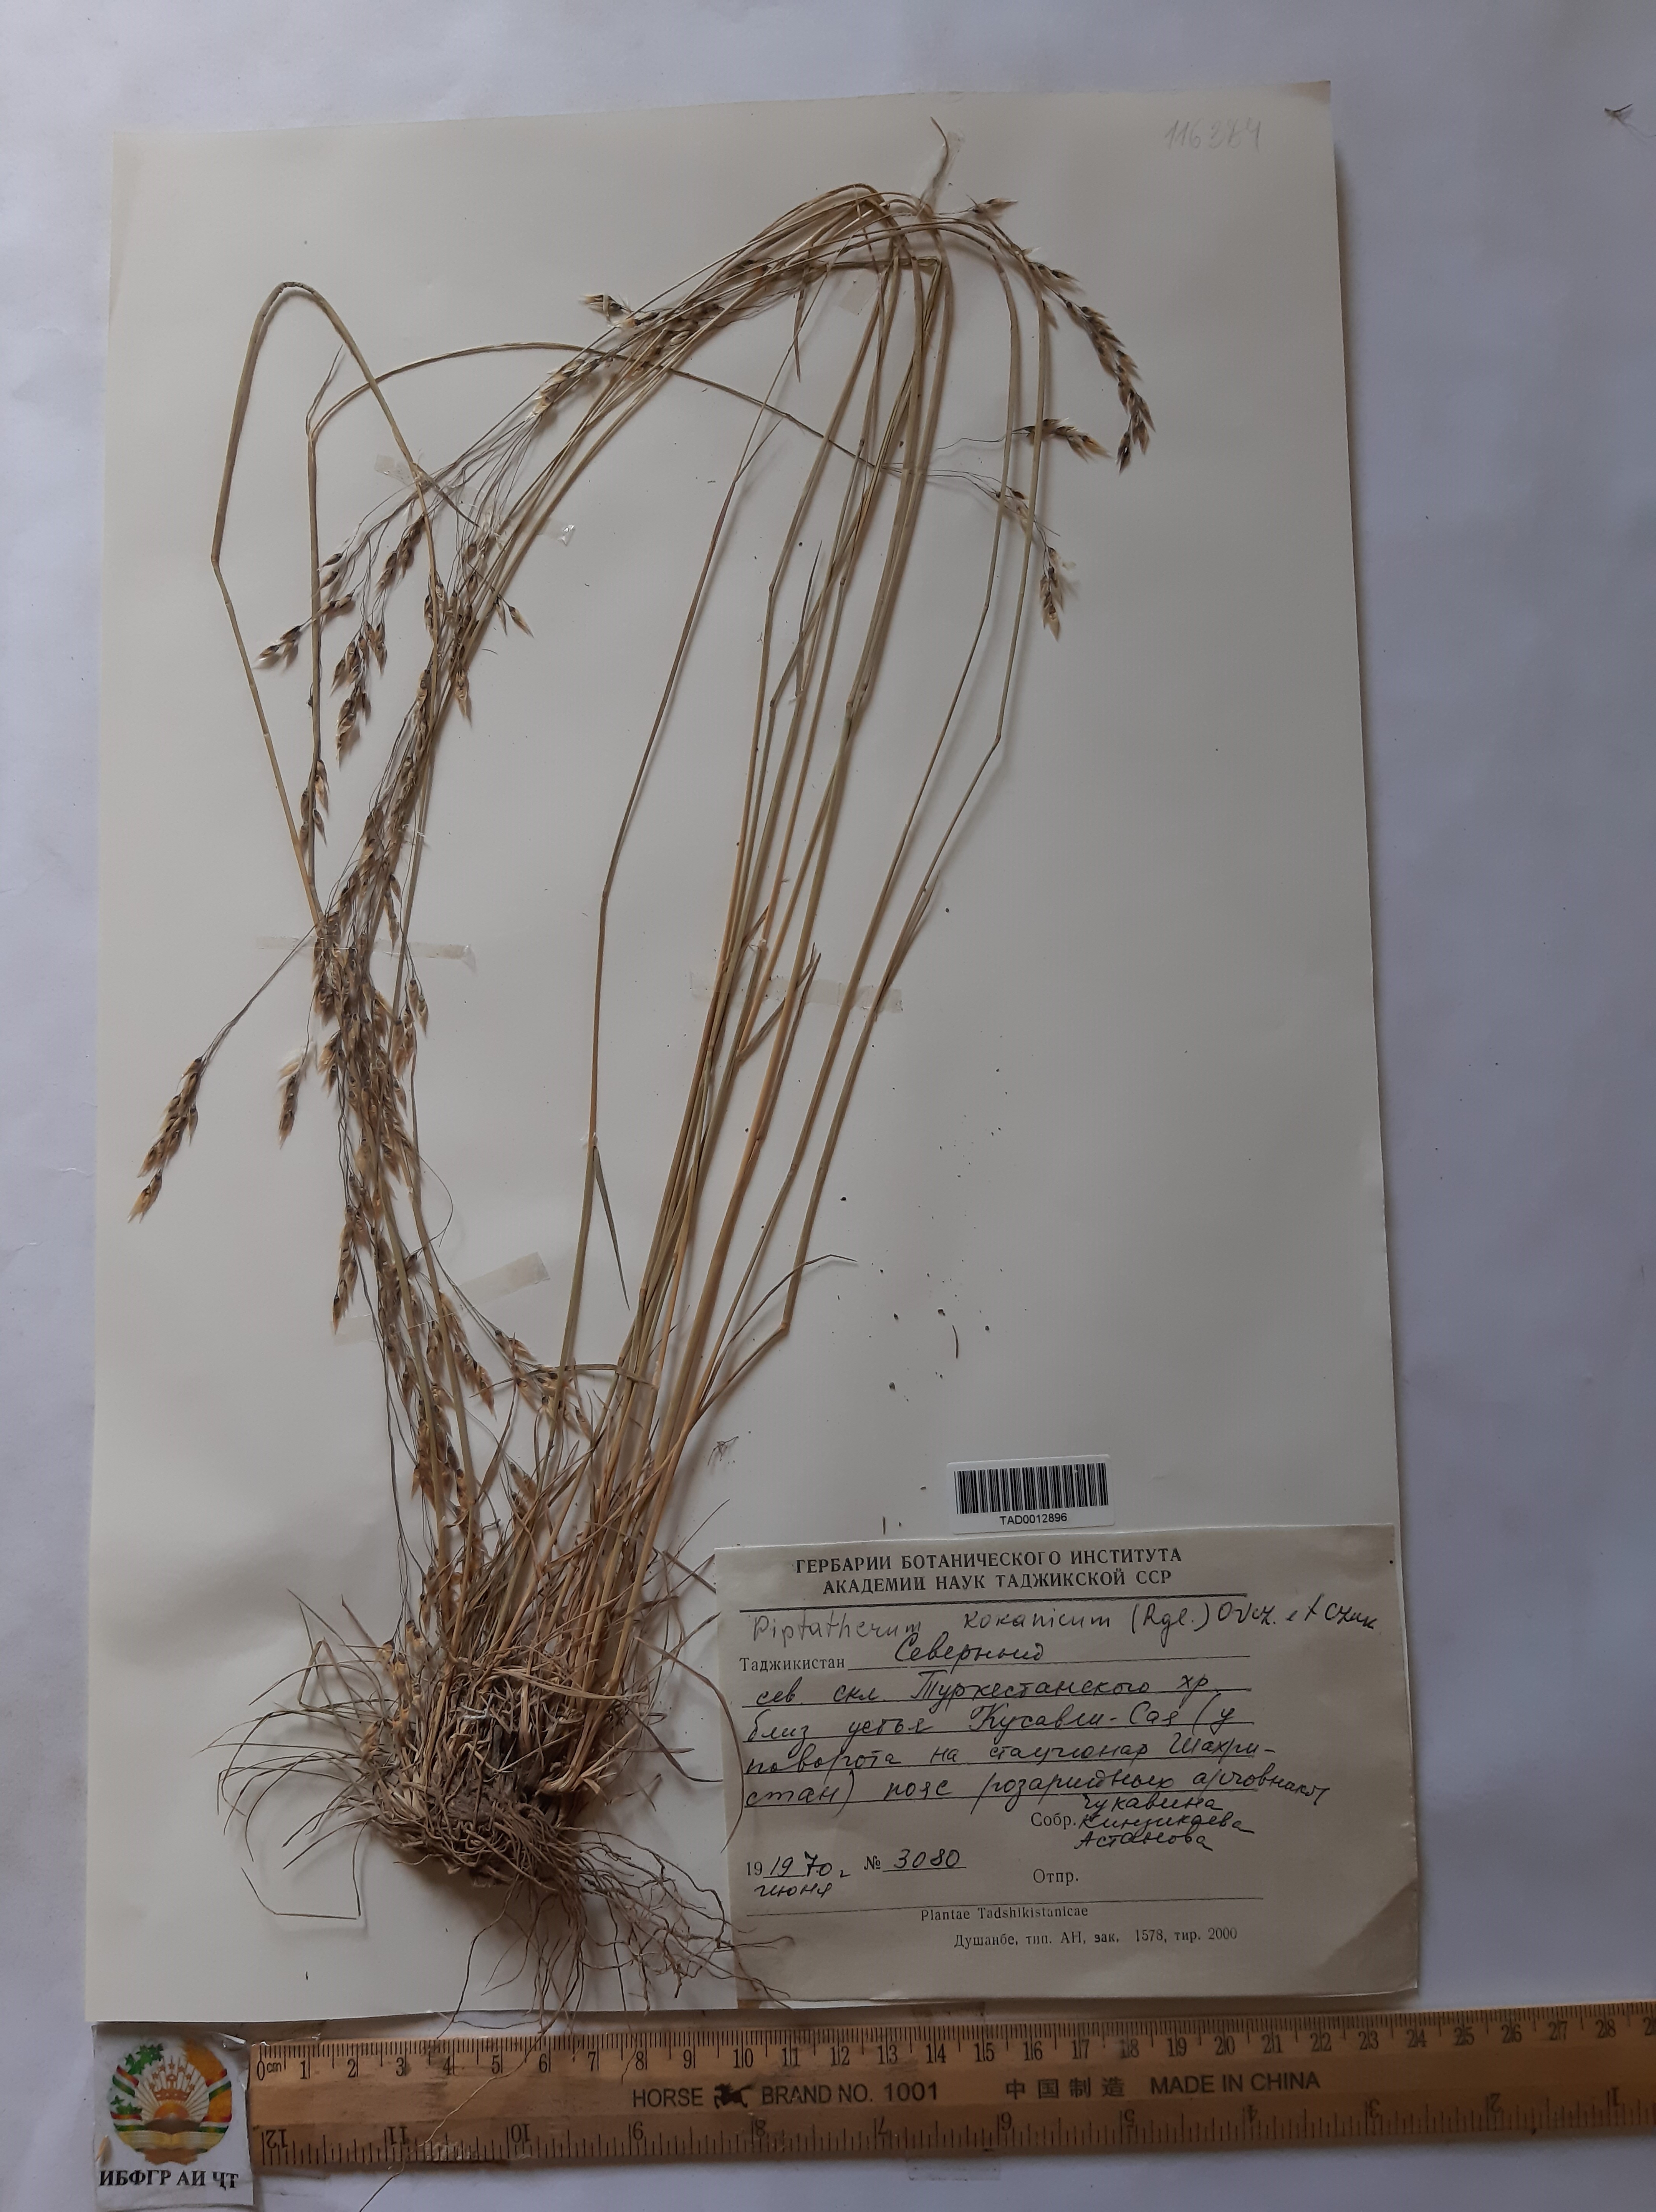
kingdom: Plantae
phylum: Tracheophyta
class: Liliopsida
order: Poales
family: Poaceae
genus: Piptatherum
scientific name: Piptatherum songaricum
